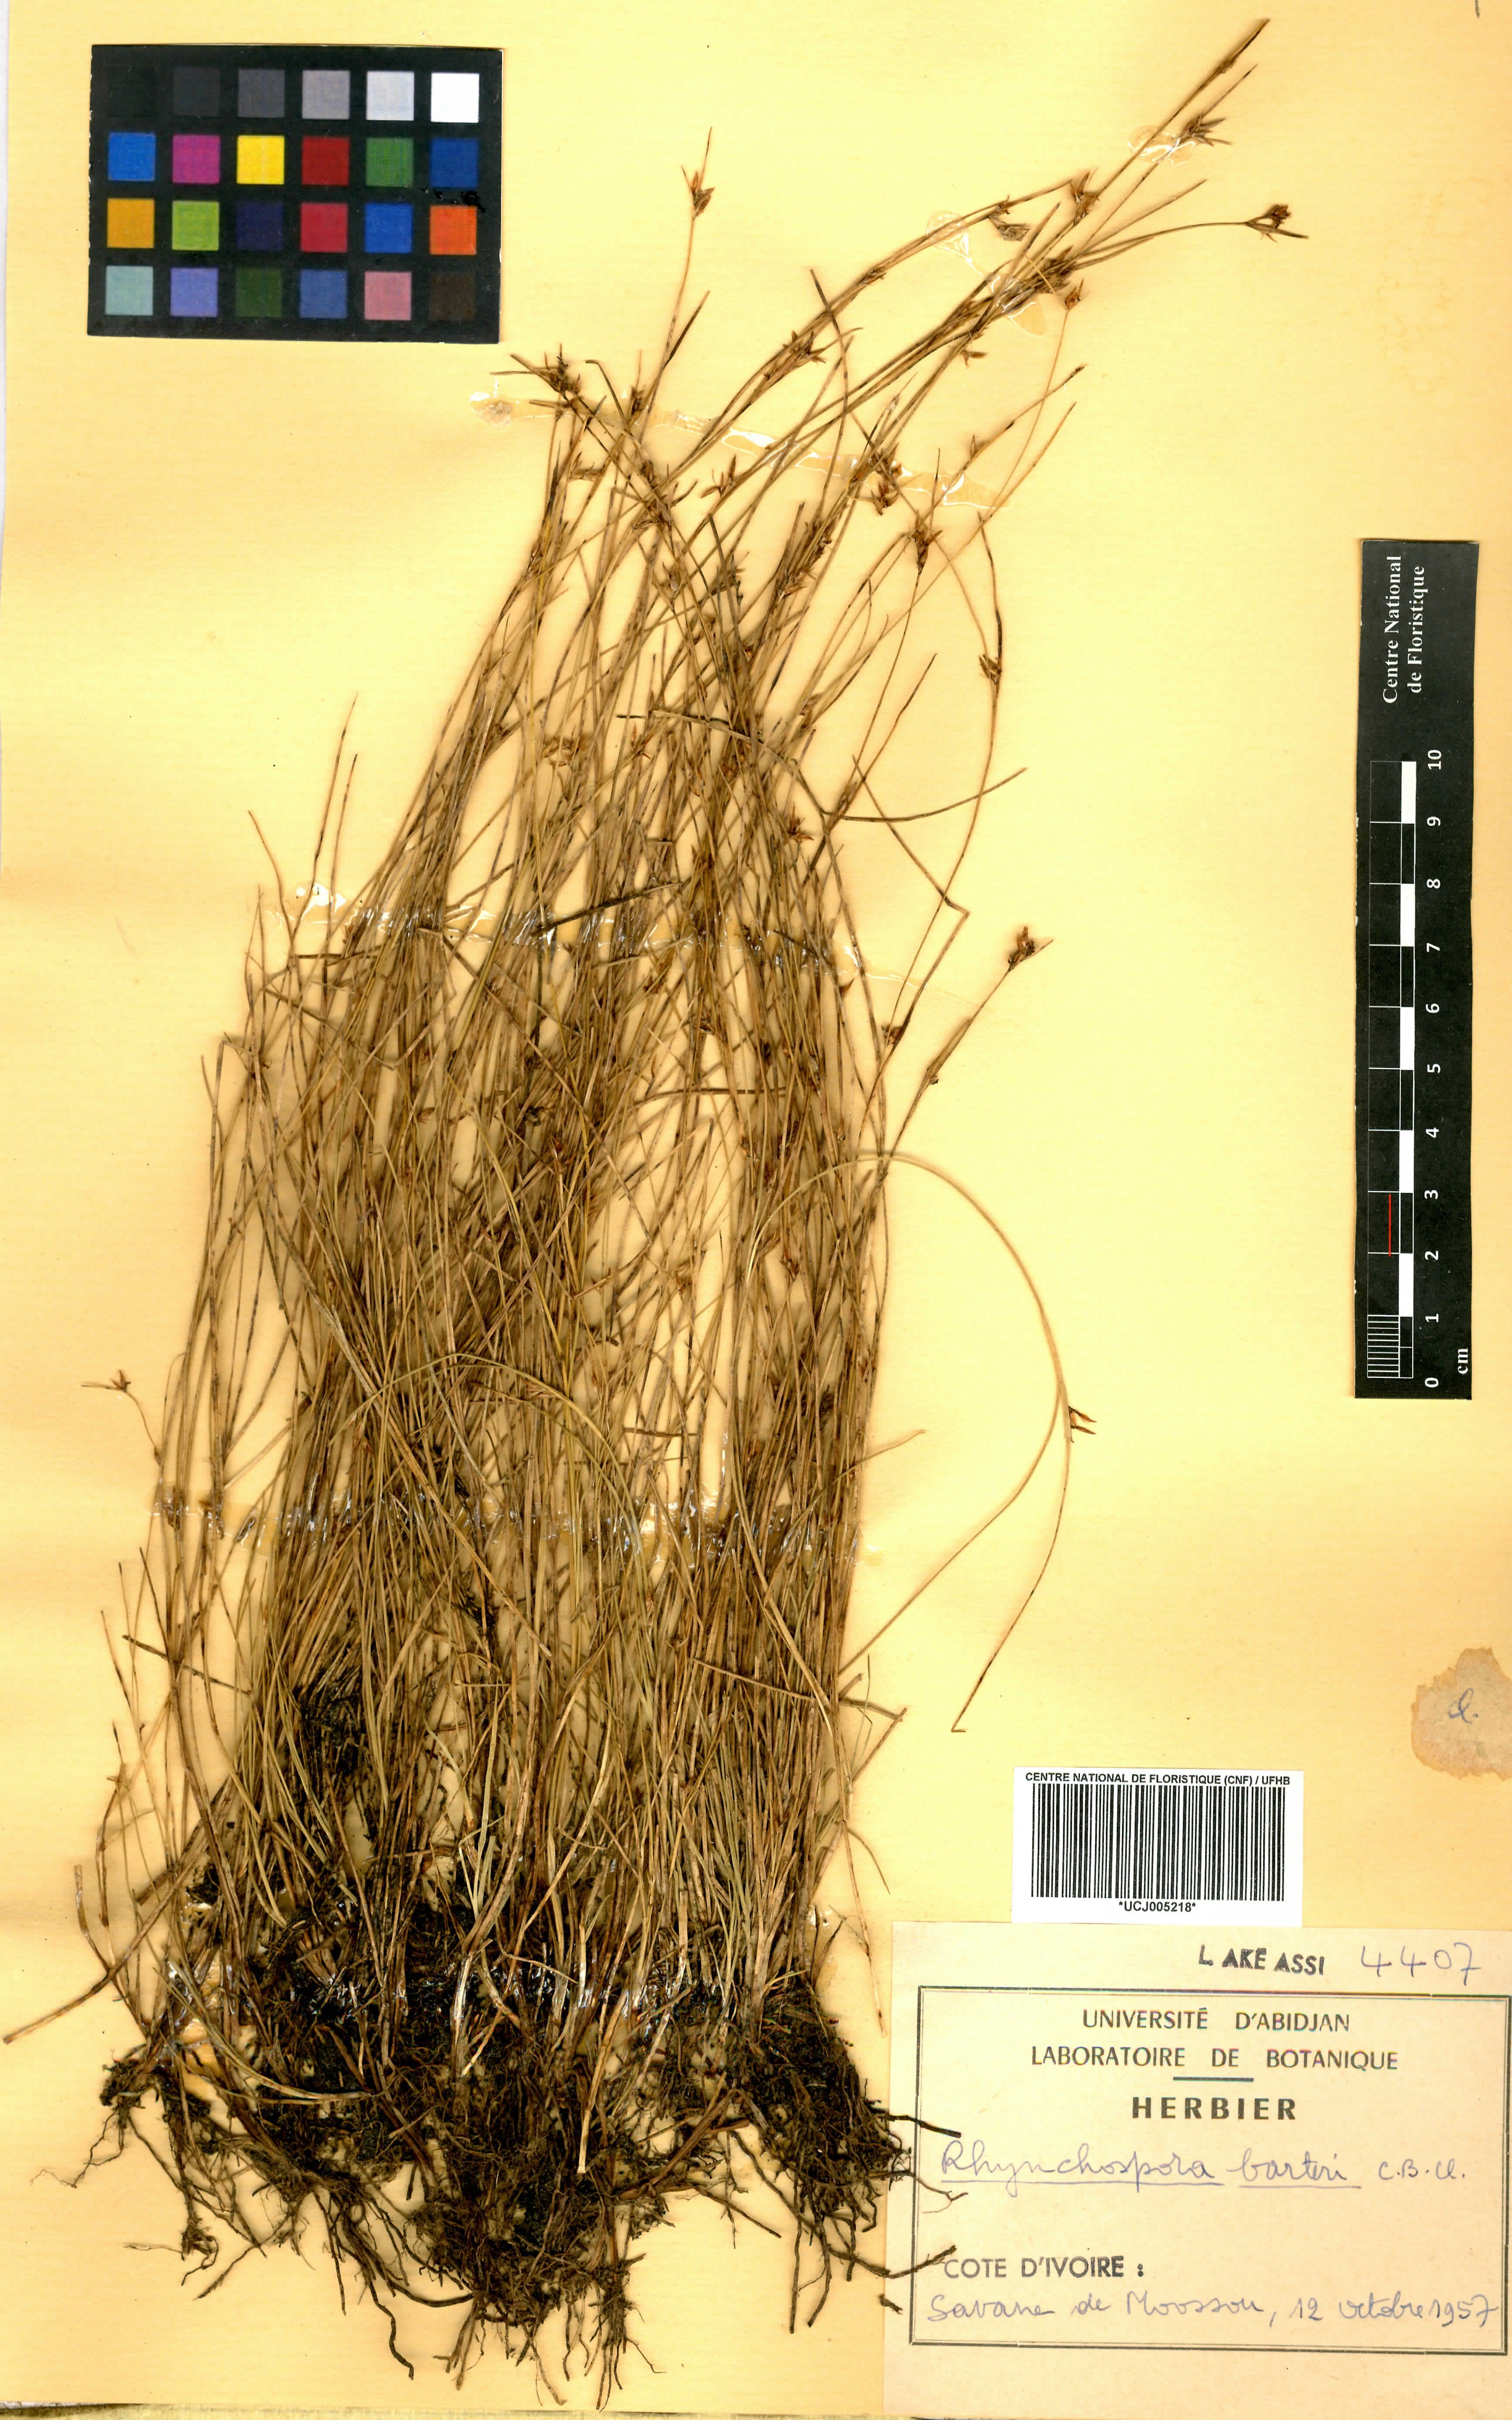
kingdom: Plantae
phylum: Tracheophyta
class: Liliopsida
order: Poales
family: Cyperaceae
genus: Rhynchospora
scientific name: Rhynchospora barteri
